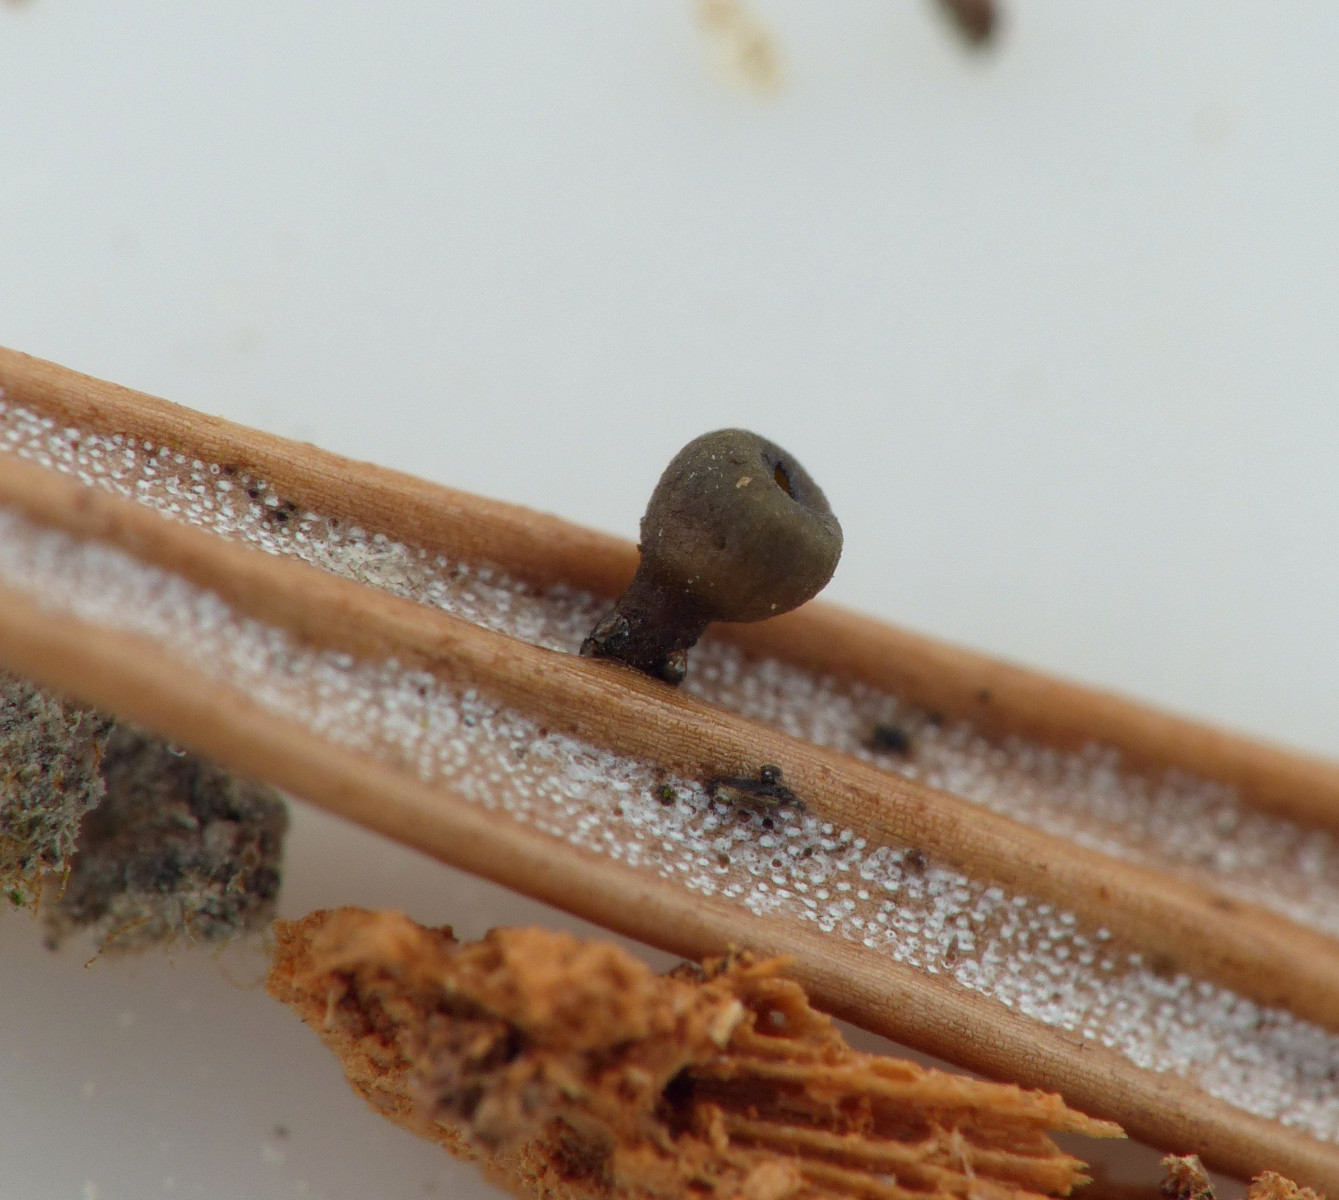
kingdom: Fungi
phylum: Ascomycota
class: Leotiomycetes
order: Helotiales
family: Rutstroemiaceae
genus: Rutstroemia
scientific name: Rutstroemia elatina
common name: ædelgran-brunskive
